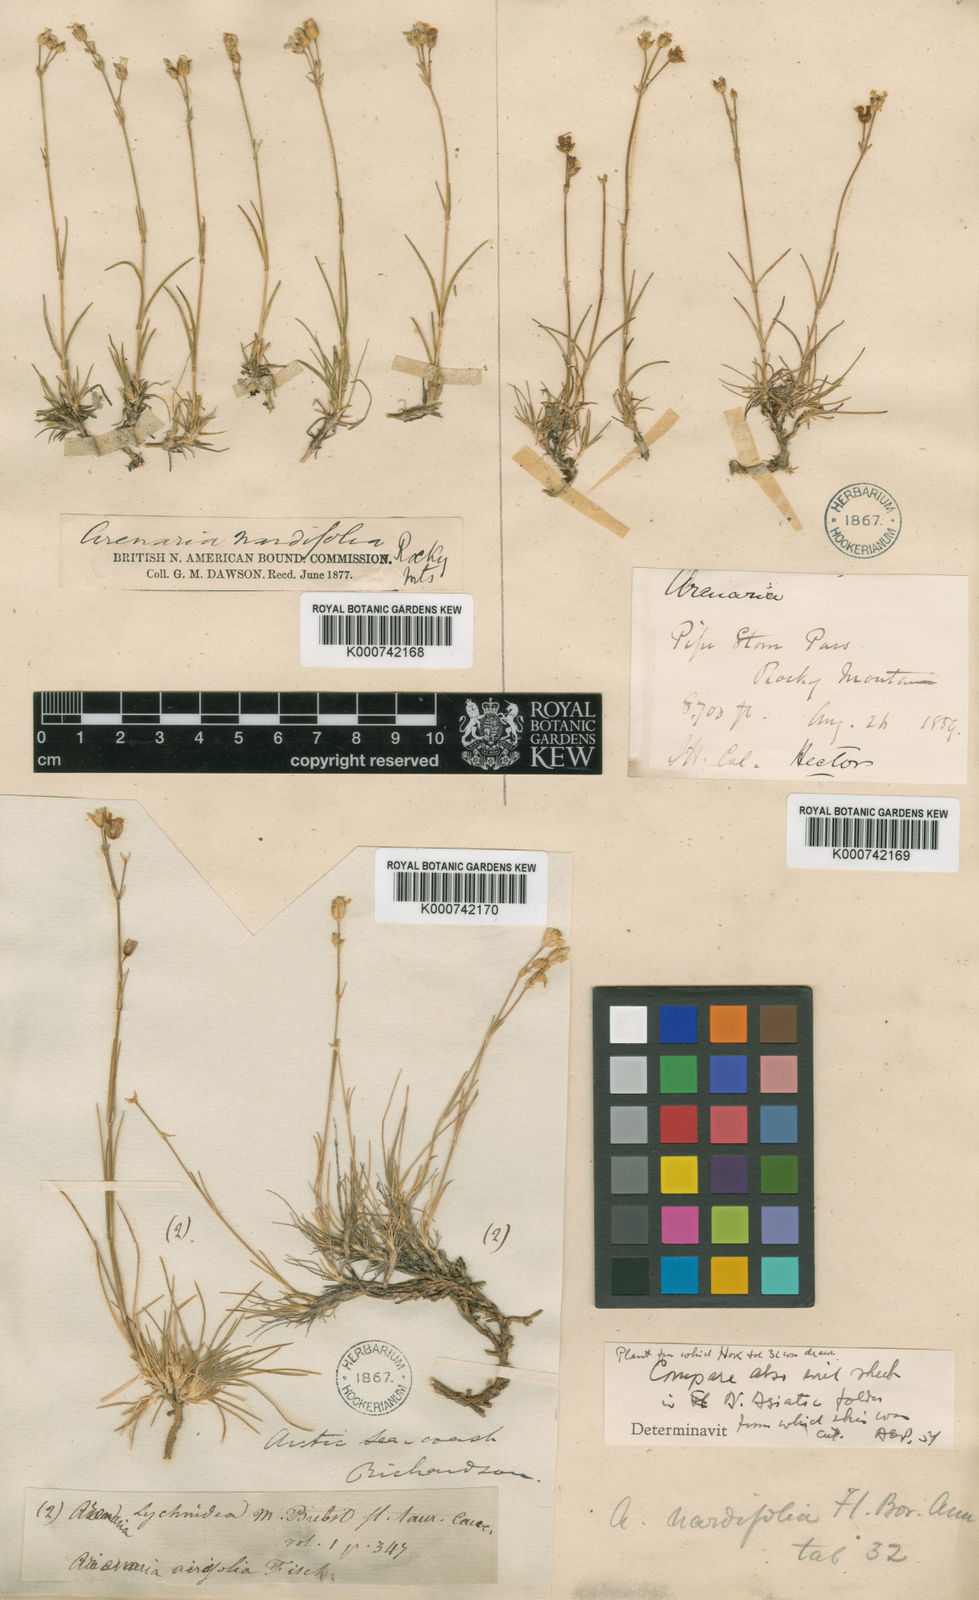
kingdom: Plantae
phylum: Tracheophyta
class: Magnoliopsida
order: Caryophyllales
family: Caryophyllaceae
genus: Eremogone
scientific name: Eremogone capillaris
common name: Slender mountain sandwort
